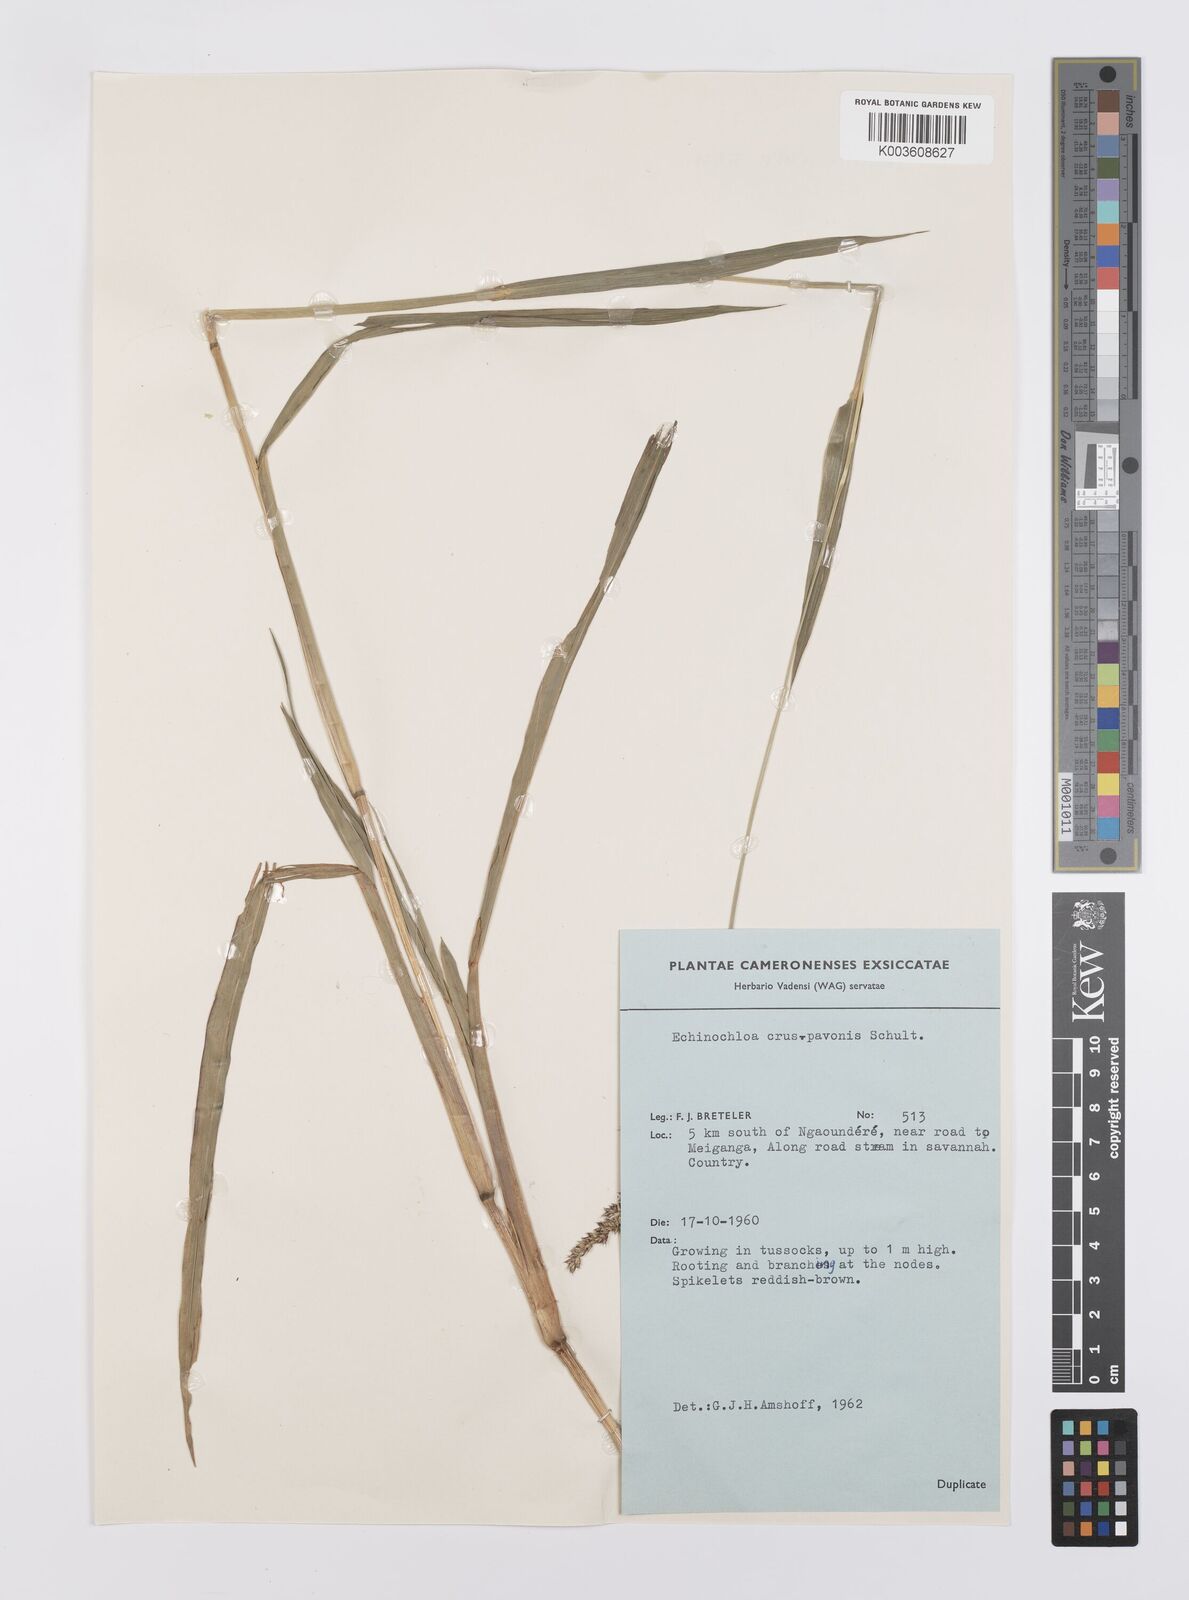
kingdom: Plantae
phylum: Tracheophyta
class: Liliopsida
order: Poales
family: Poaceae
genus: Echinochloa
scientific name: Echinochloa crus-pavonis
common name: Gulf cockspur grass
